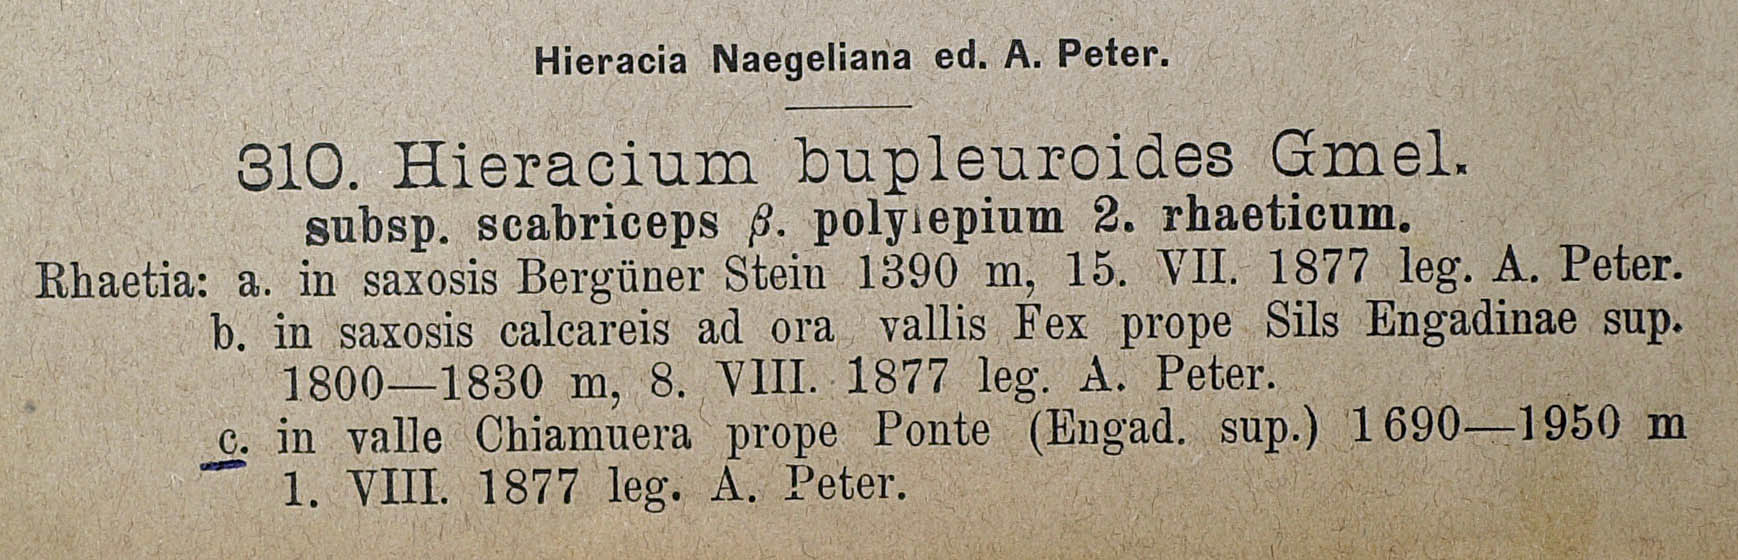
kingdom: Plantae
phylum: Tracheophyta
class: Magnoliopsida
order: Asterales
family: Asteraceae
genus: Hieracium
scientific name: Hieracium bupleuroides
